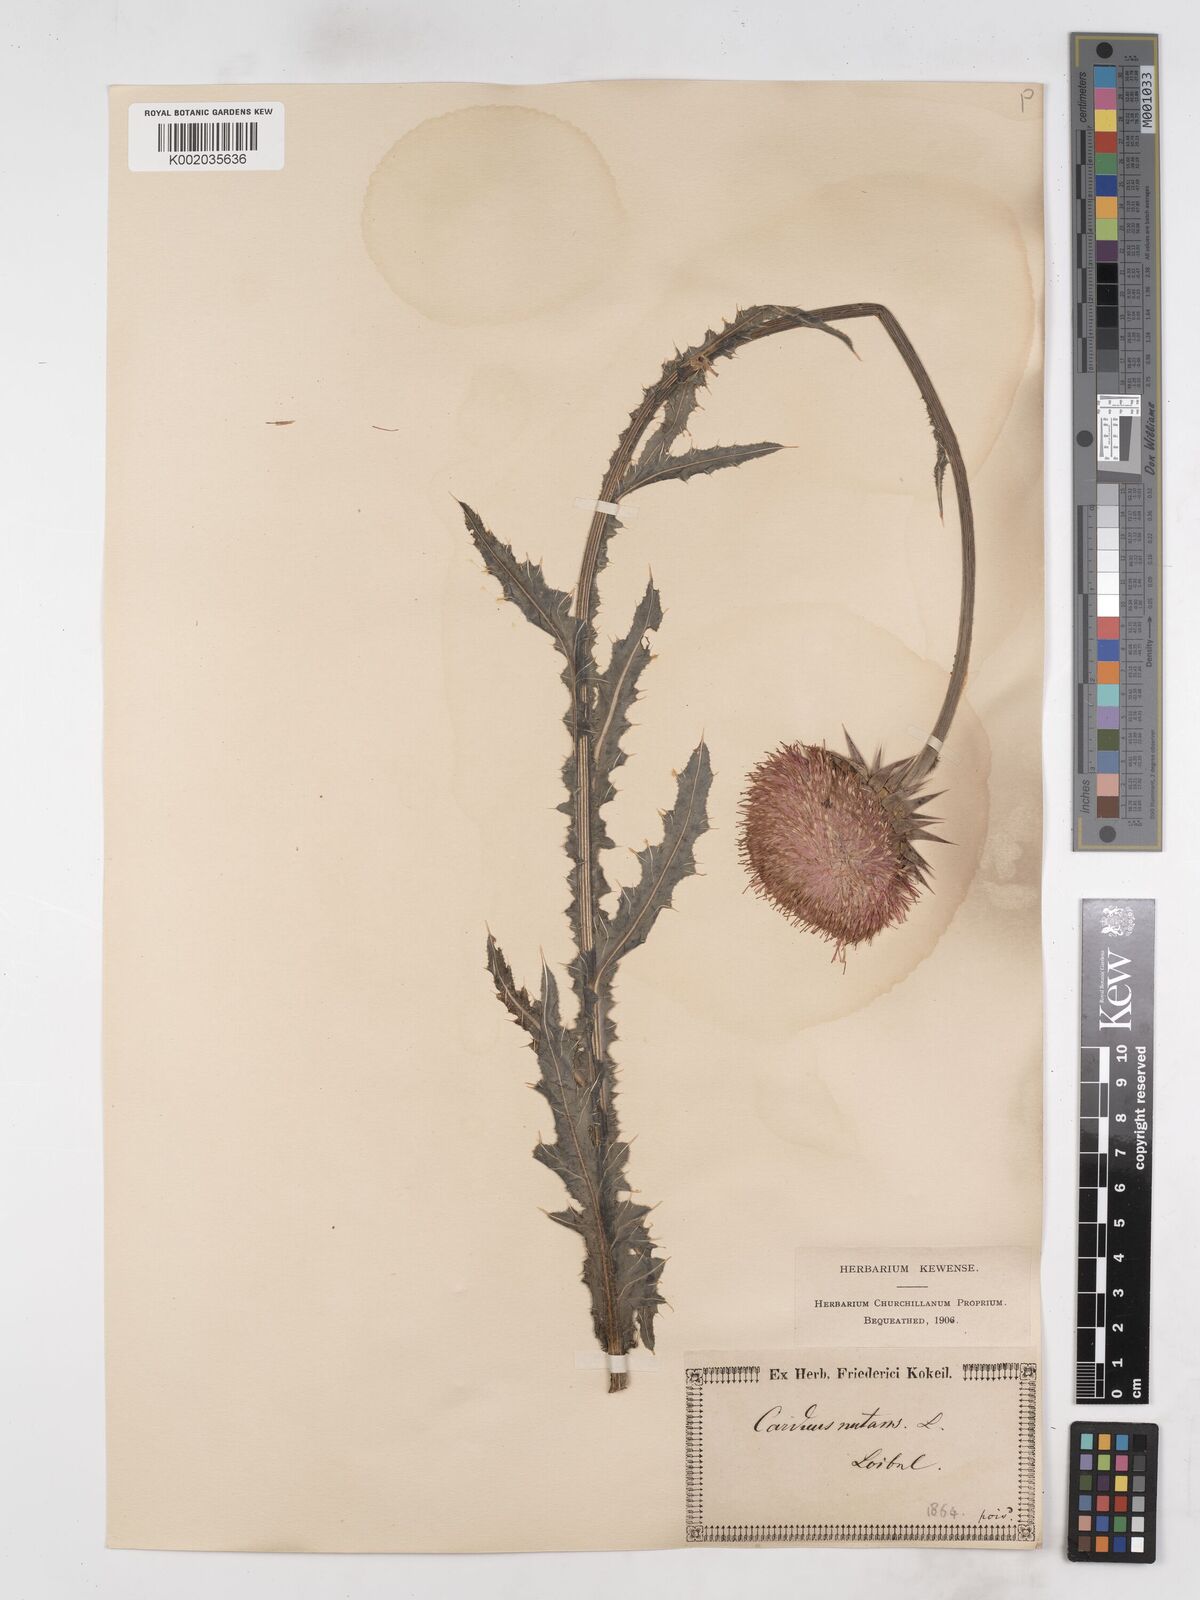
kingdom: Plantae
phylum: Tracheophyta
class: Magnoliopsida
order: Asterales
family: Asteraceae
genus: Carduus
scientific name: Carduus nutans
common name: Musk thistle
